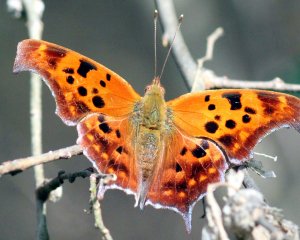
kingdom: Animalia
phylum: Arthropoda
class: Insecta
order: Lepidoptera
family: Nymphalidae
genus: Polygonia
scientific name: Polygonia interrogationis
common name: Question Mark
